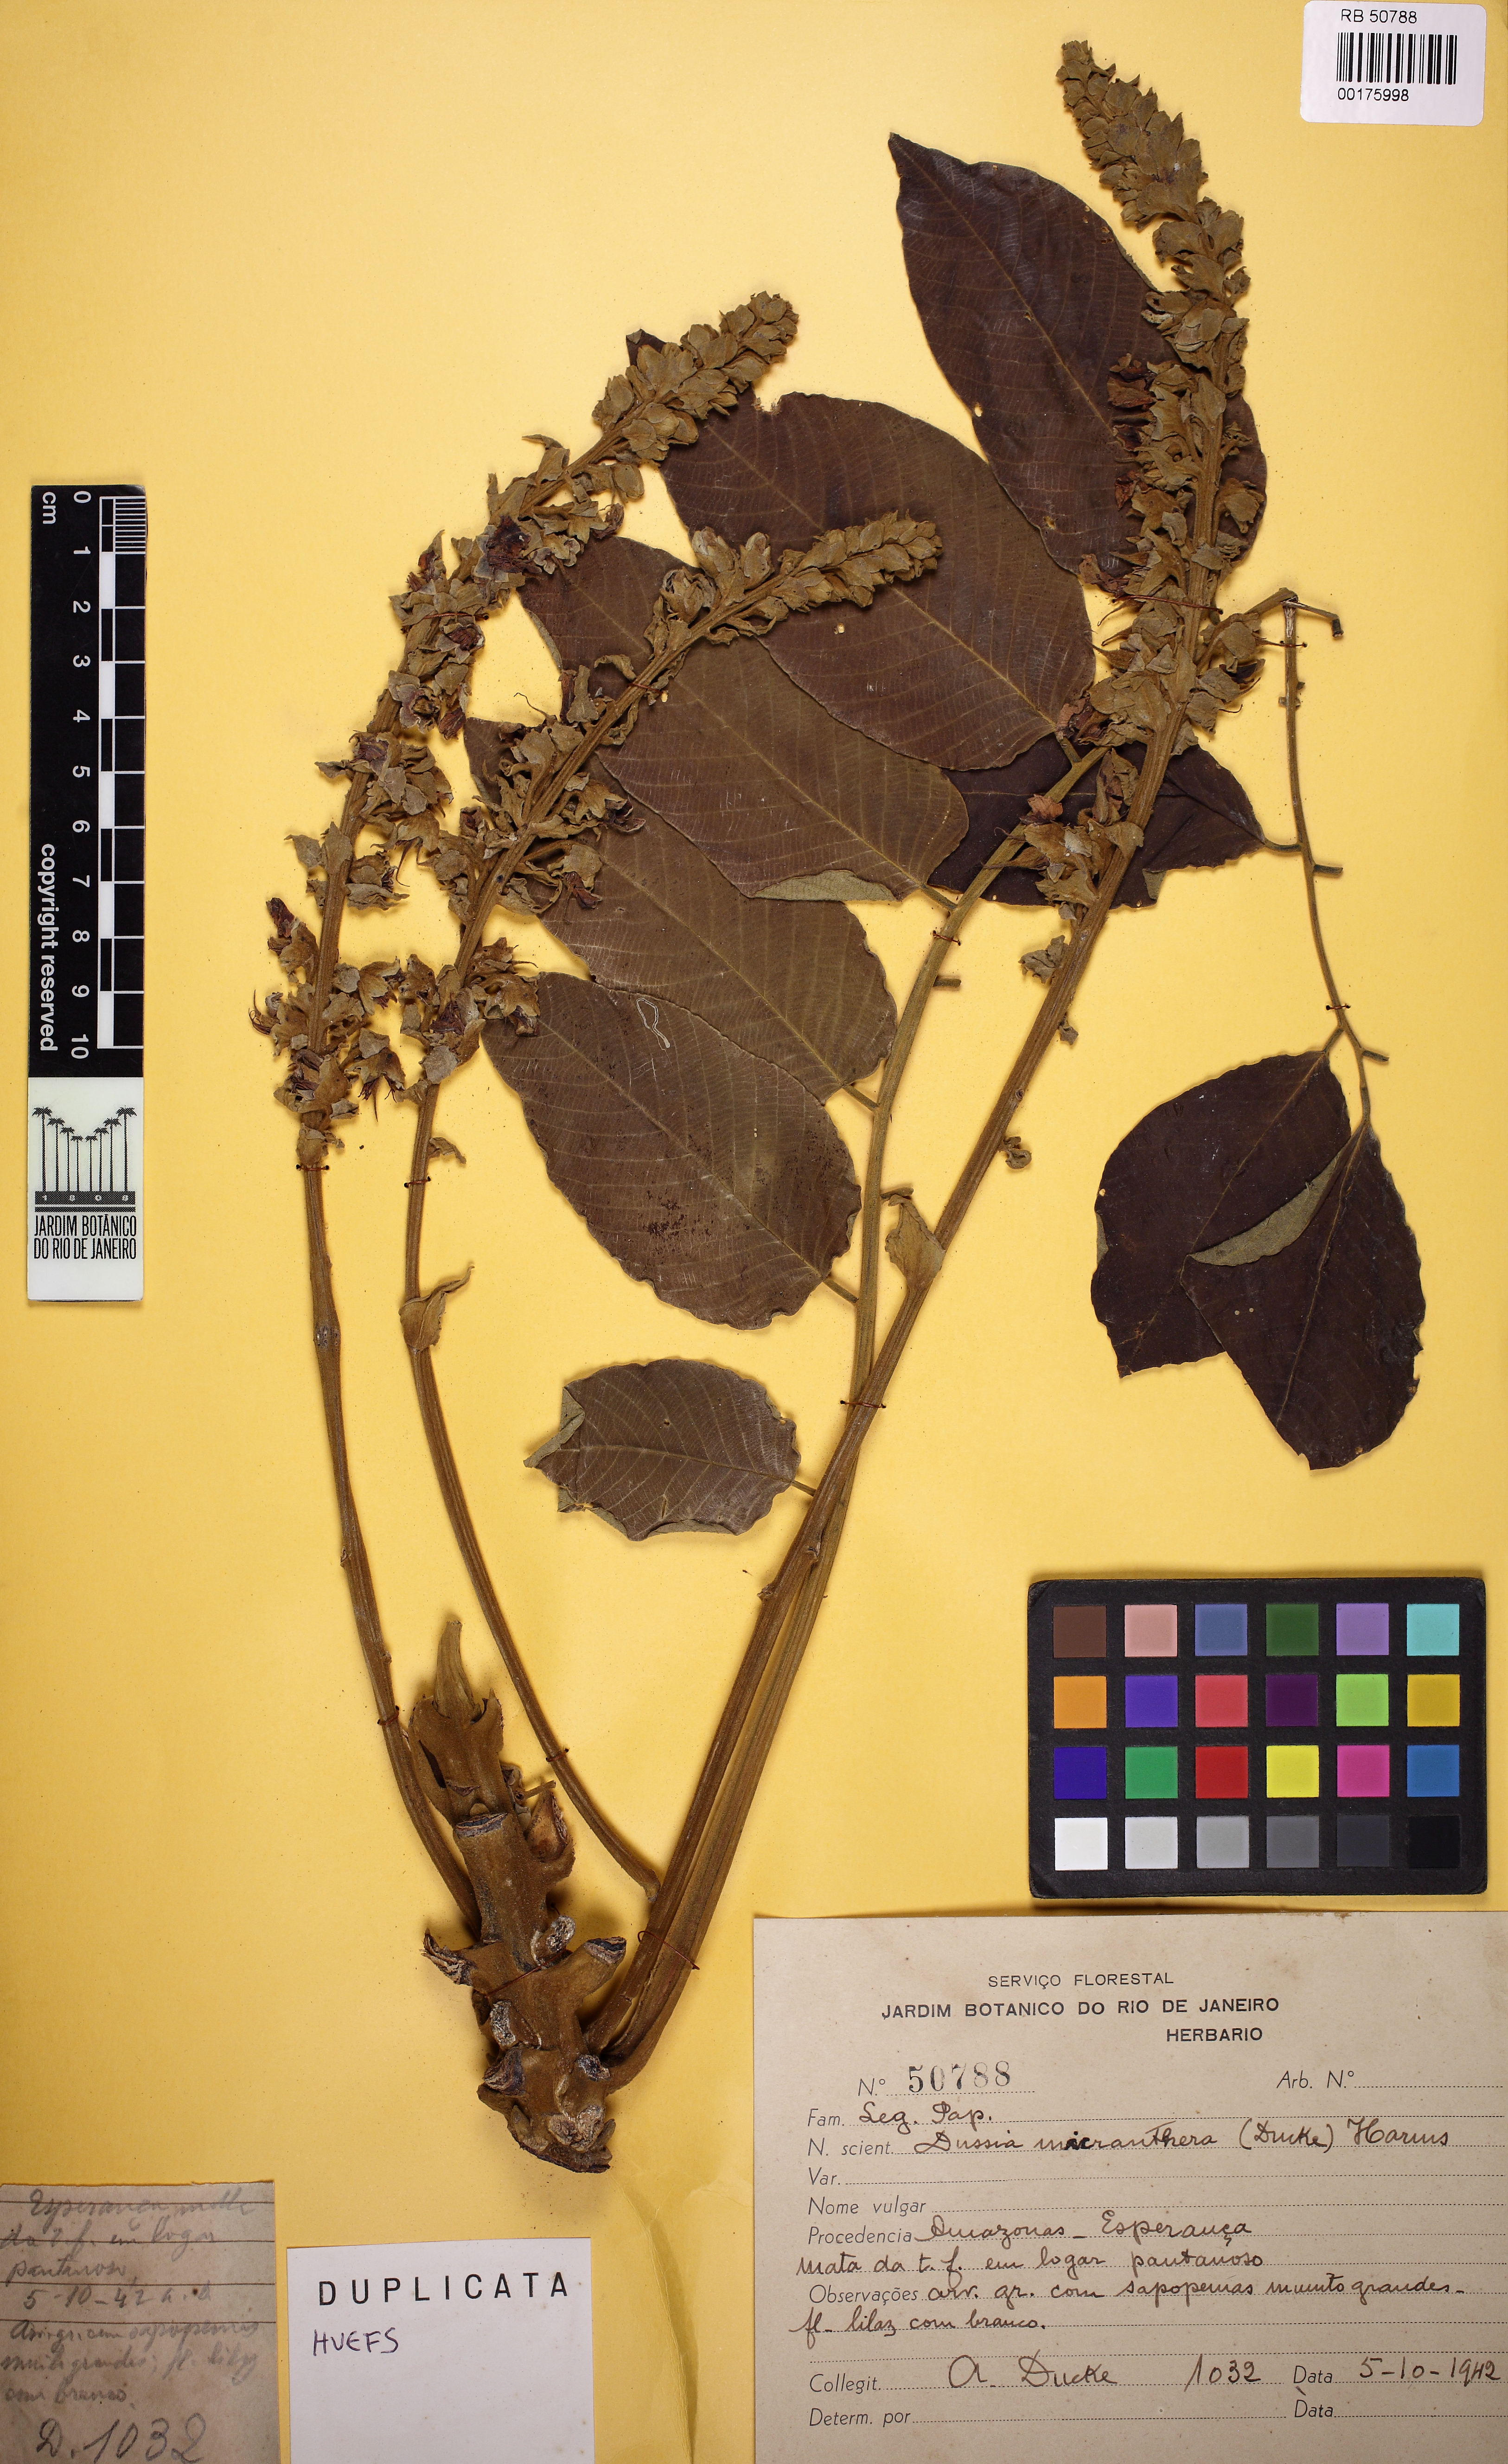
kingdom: Plantae
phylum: Tracheophyta
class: Magnoliopsida
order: Fabales
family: Fabaceae
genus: Dussia
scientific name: Dussia discolor
